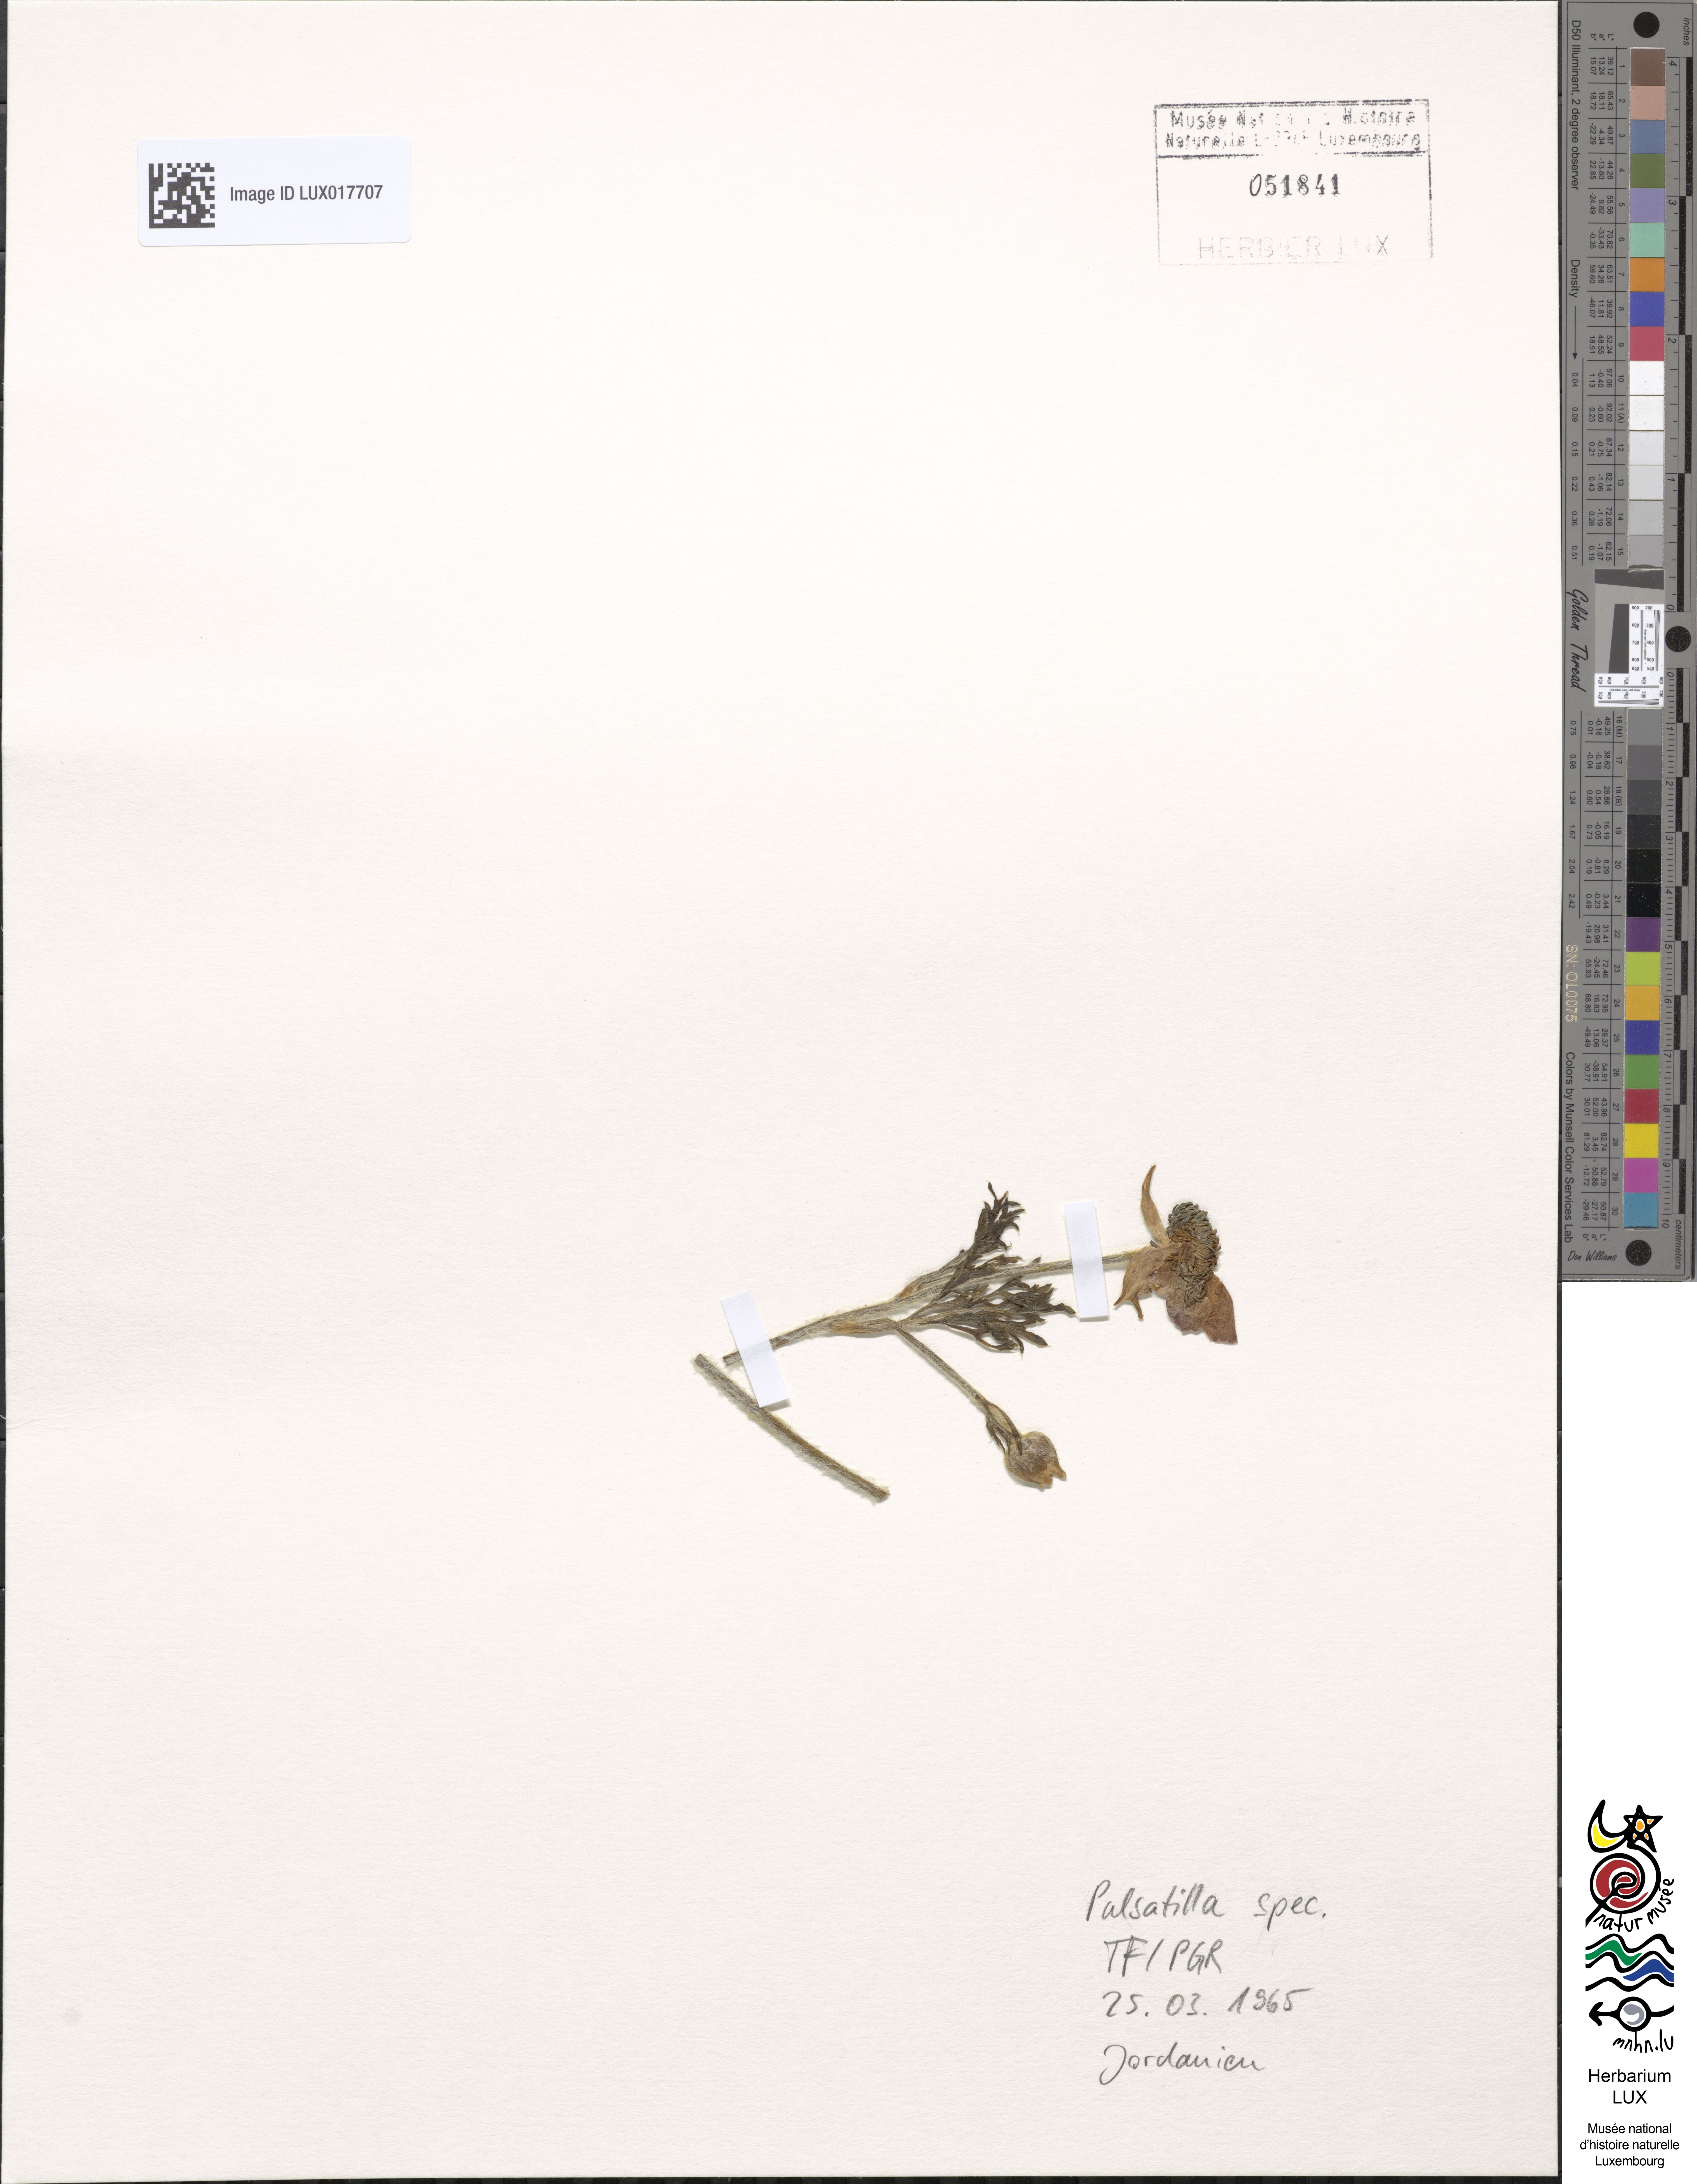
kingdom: Plantae
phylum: Tracheophyta
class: Magnoliopsida
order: Ranunculales
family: Ranunculaceae
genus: Pulsatilla
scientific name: Pulsatilla
